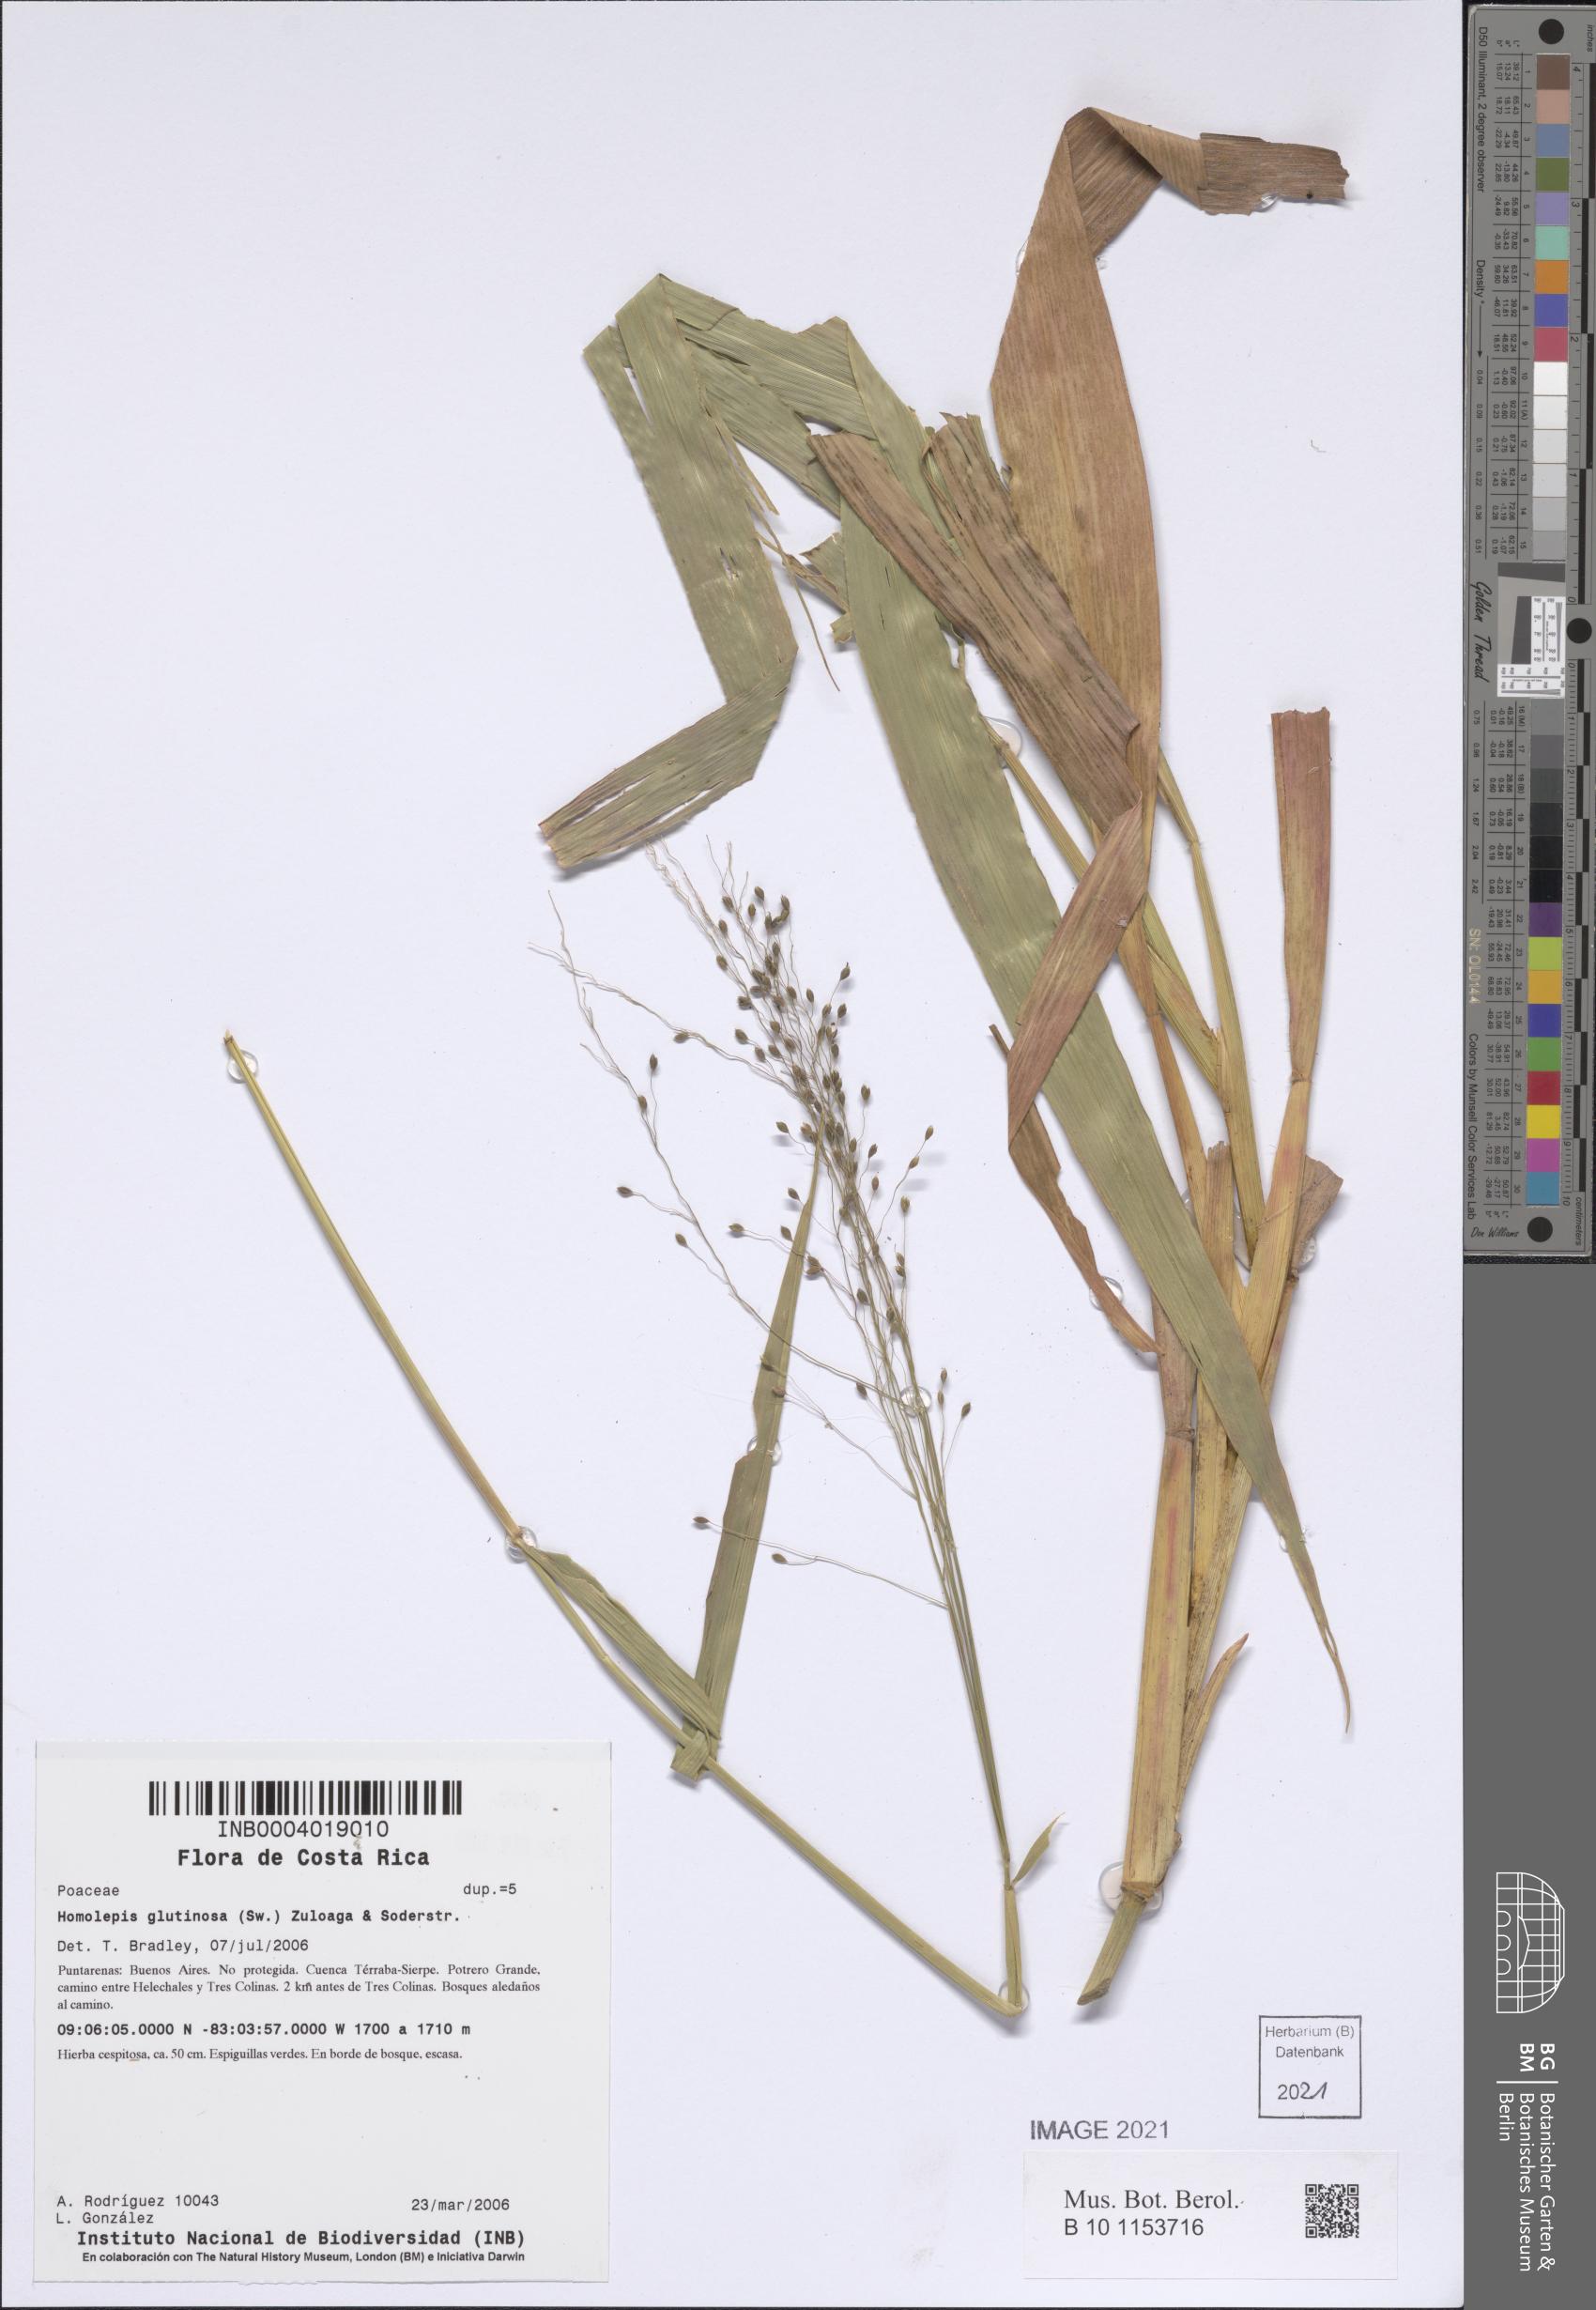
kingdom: Plantae
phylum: Tracheophyta
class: Liliopsida
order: Poales
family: Poaceae
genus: Homolepis
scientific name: Homolepis glutinosa
